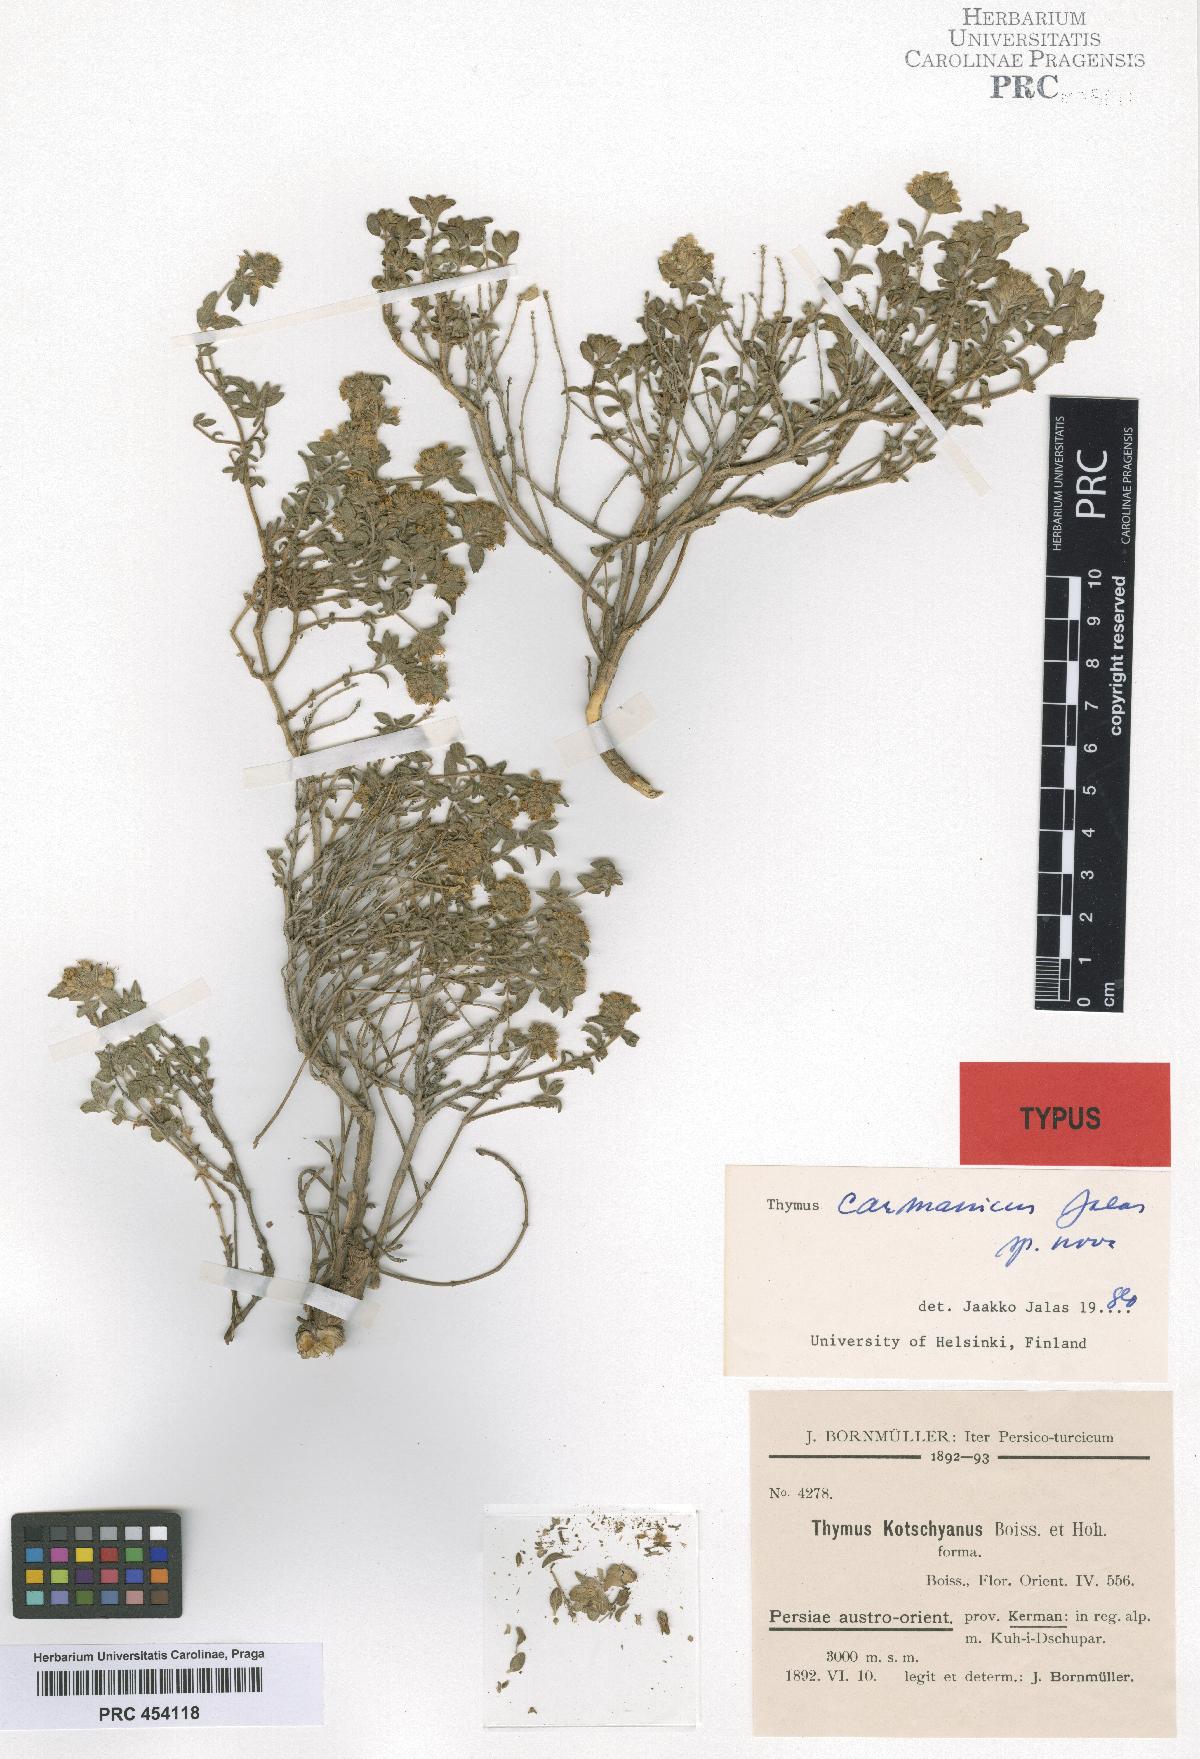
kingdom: Plantae
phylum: Tracheophyta
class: Magnoliopsida
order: Lamiales
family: Lamiaceae
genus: Thymus
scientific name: Thymus carmanicus
